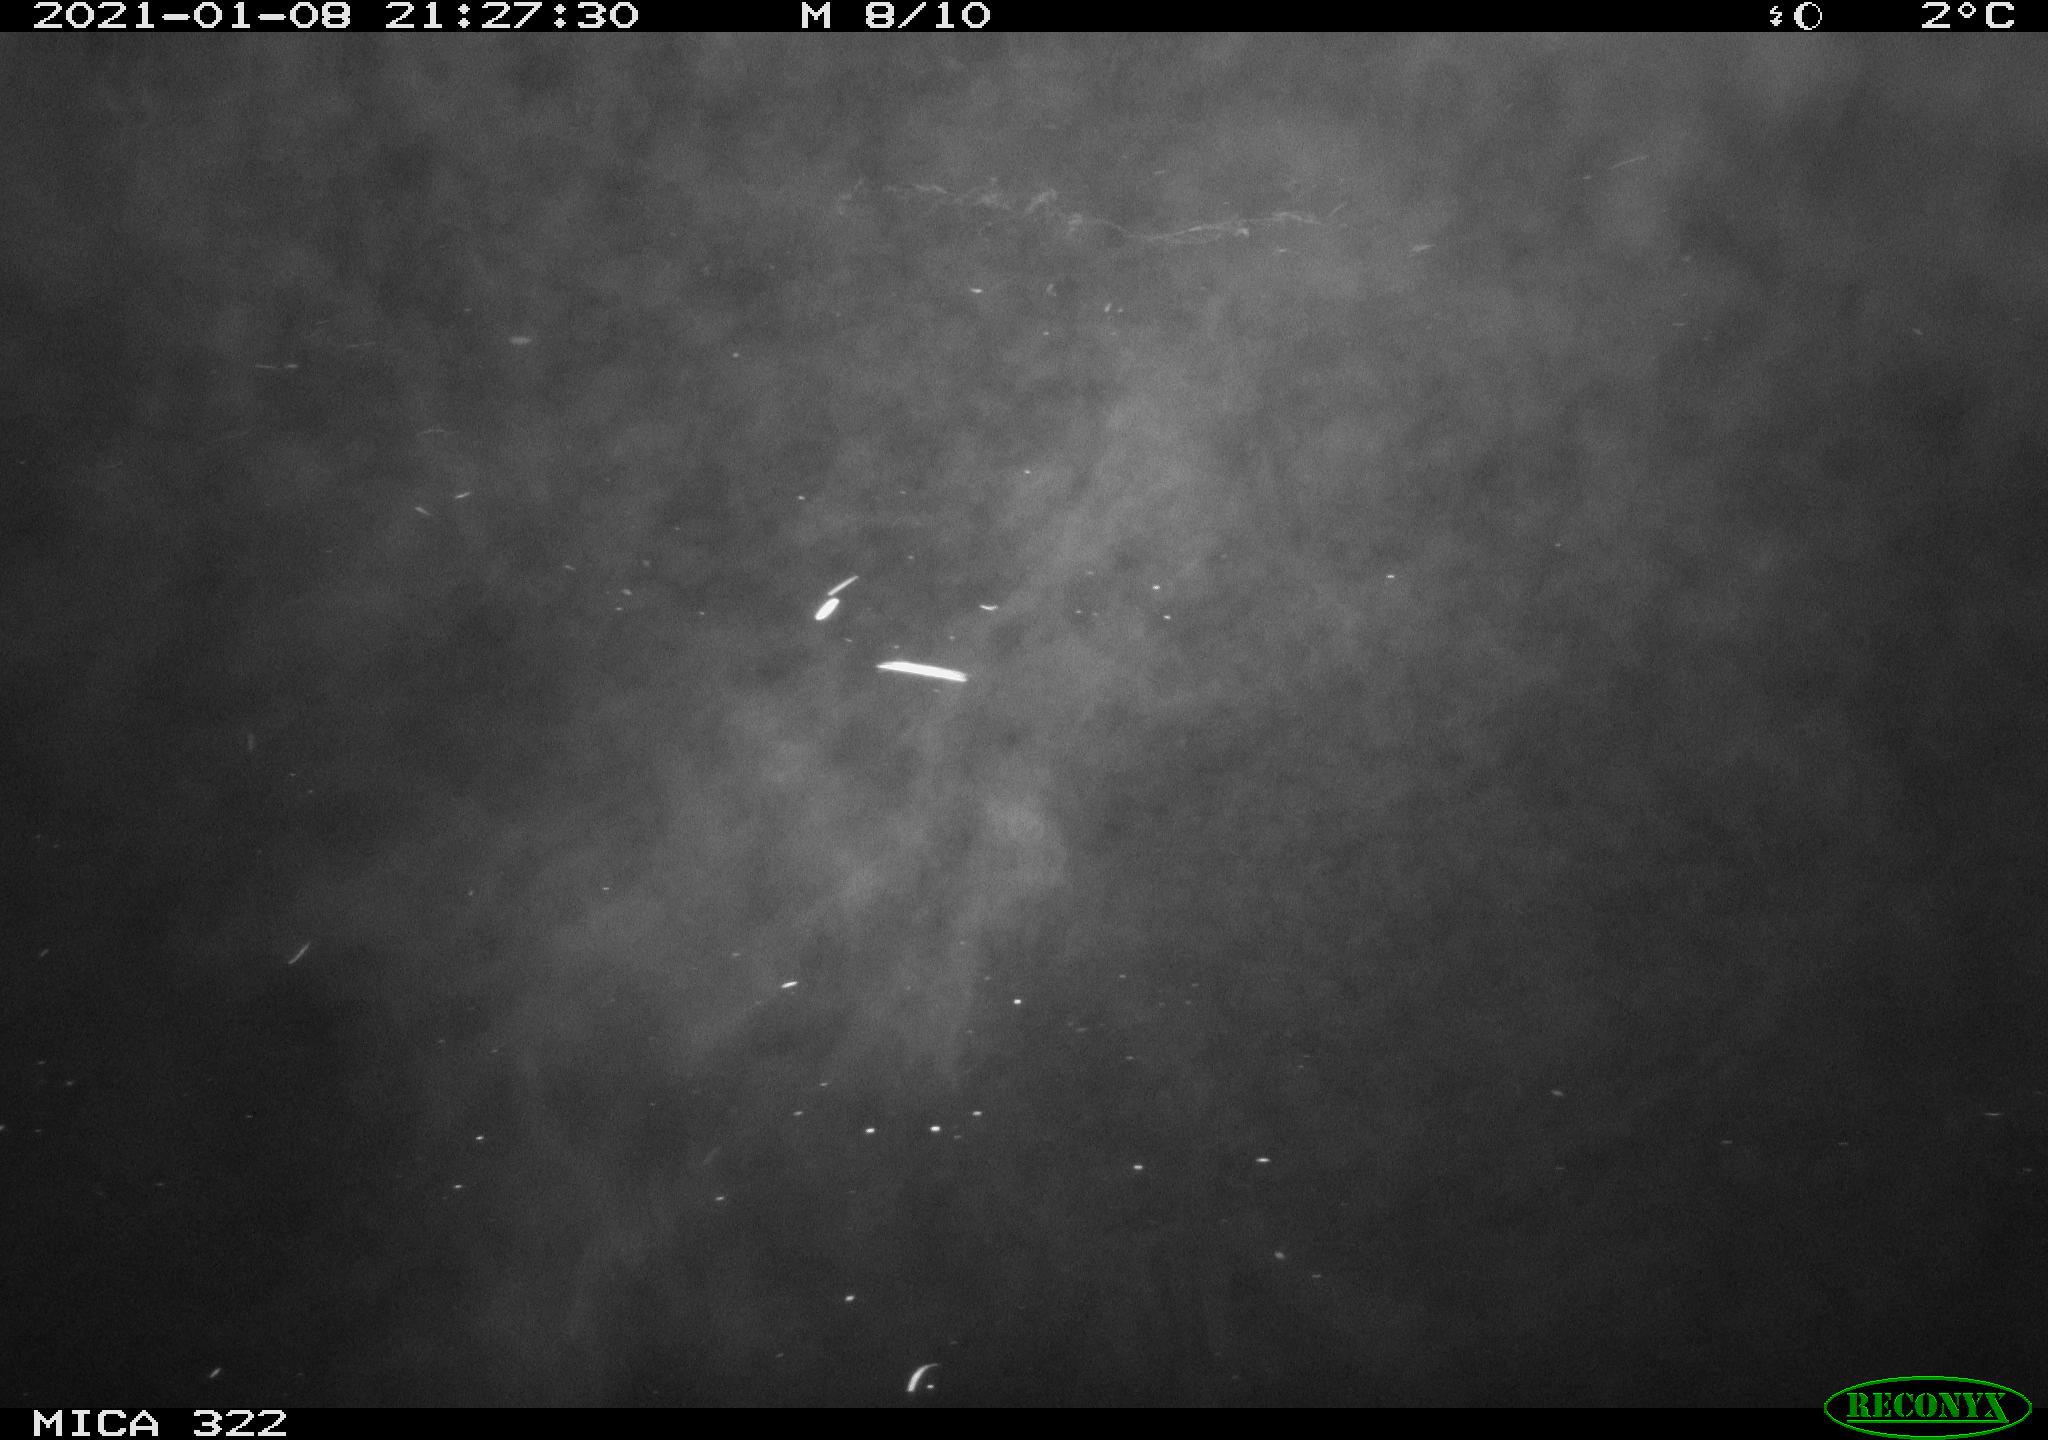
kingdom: Animalia
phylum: Chordata
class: Aves
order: Anseriformes
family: Anatidae
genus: Anas
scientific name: Anas crecca
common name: Eurasian teal
